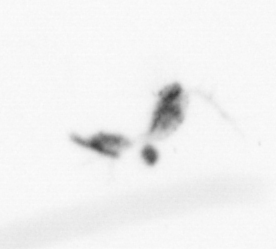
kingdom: Animalia
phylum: Arthropoda
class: Copepoda
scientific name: Copepoda
